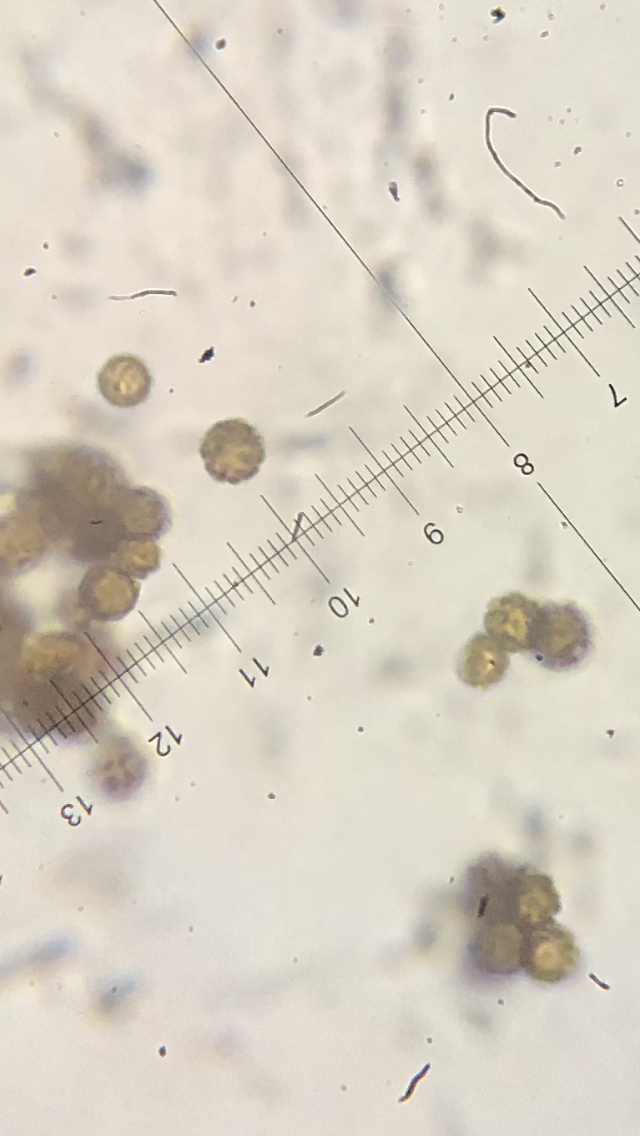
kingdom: Fungi
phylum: Basidiomycota
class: Agaricomycetes
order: Geastrales
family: Geastraceae
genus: Geastrum
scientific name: Geastrum
